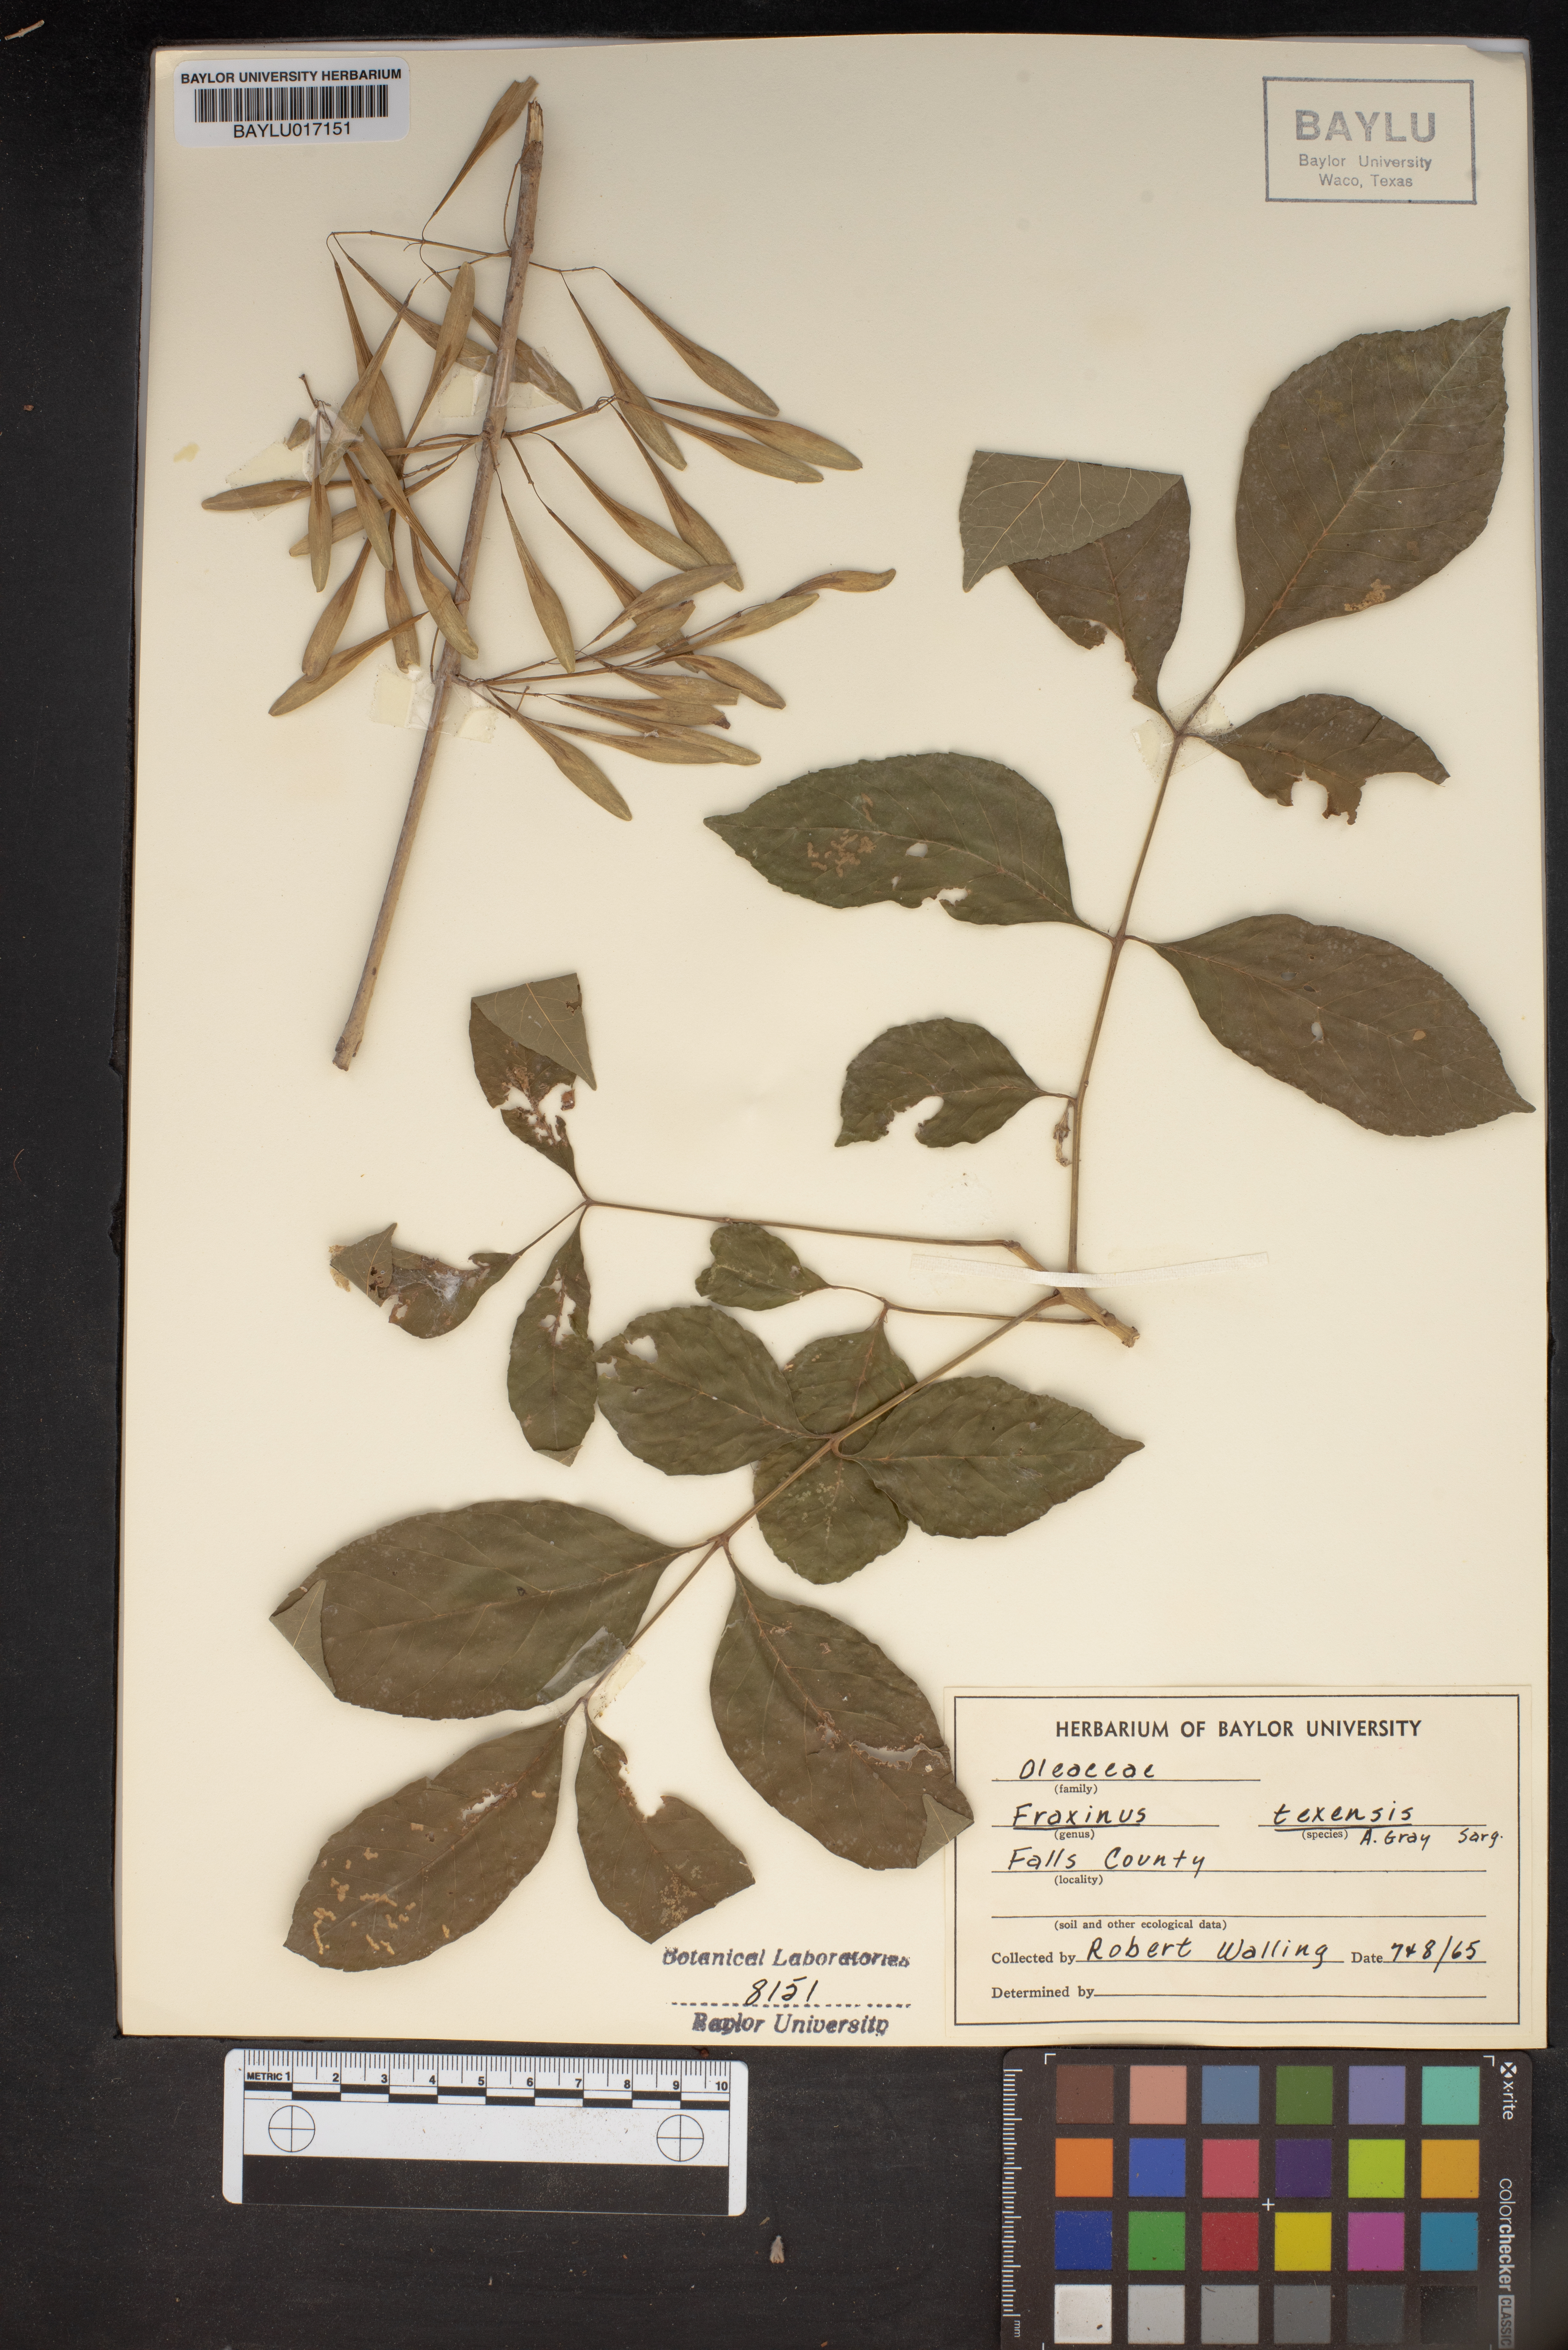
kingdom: Plantae
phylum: Tracheophyta
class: Magnoliopsida
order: Lamiales
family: Oleaceae
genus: Fraxinus
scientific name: Fraxinus albicans
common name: Texas ash
